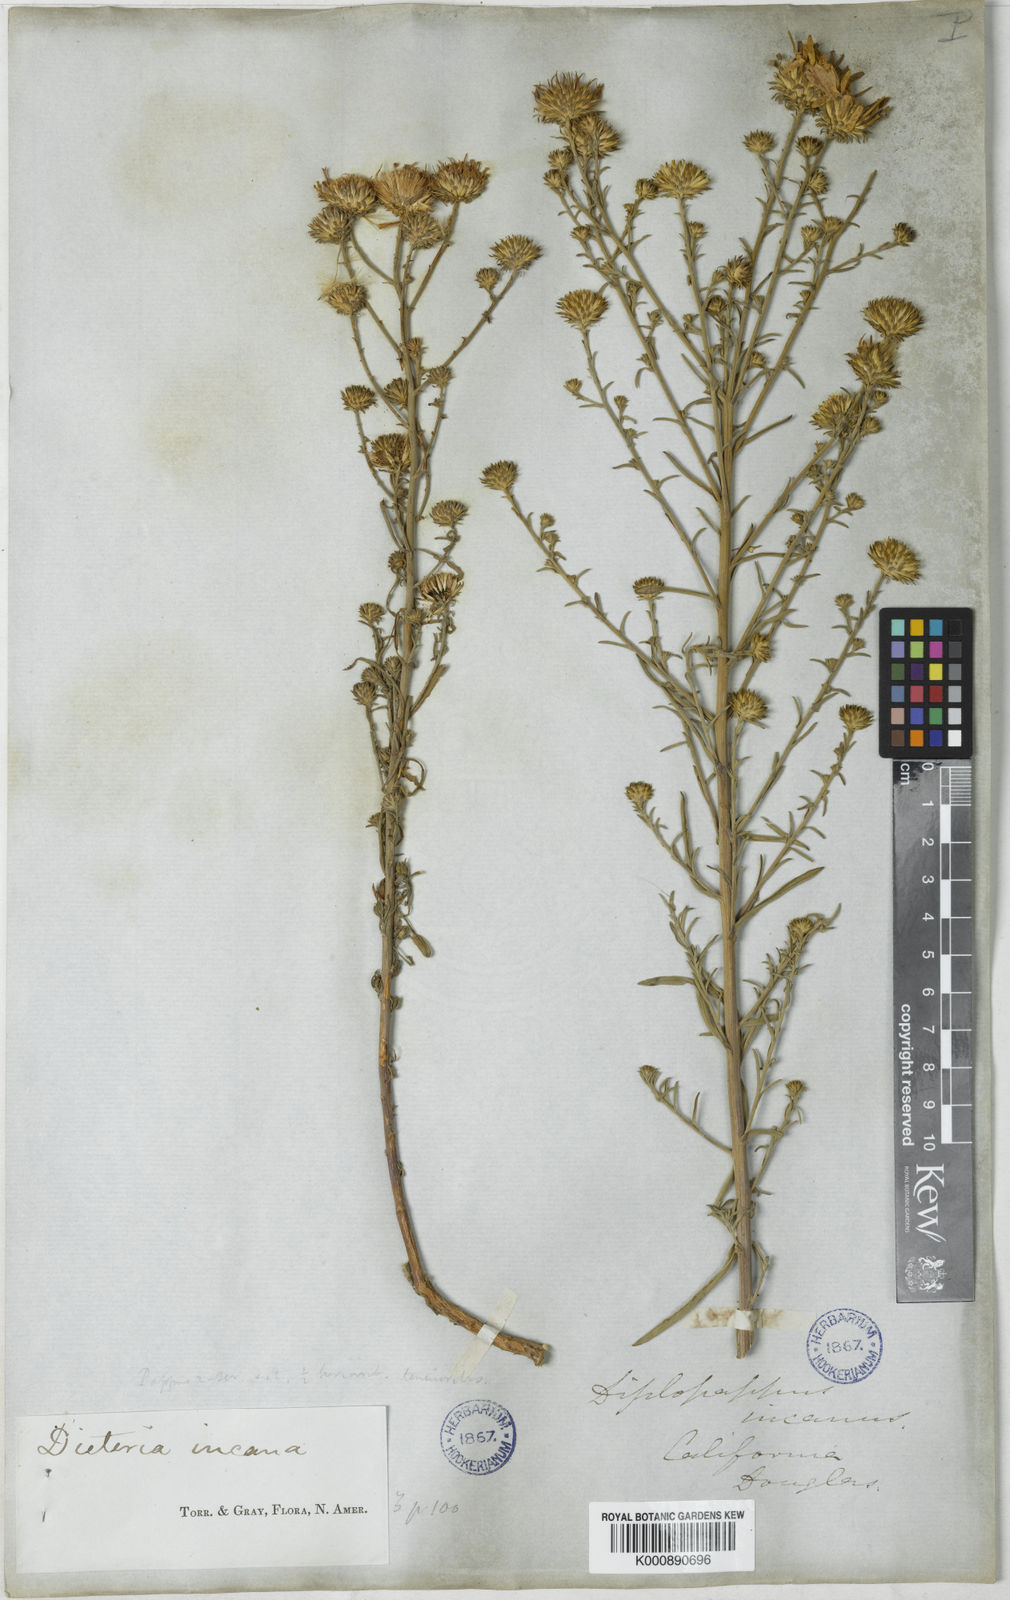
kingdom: Plantae
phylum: Tracheophyta
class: Magnoliopsida
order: Asterales
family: Asteraceae
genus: Dieteria
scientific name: Dieteria canescens
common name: Hoary-aster
